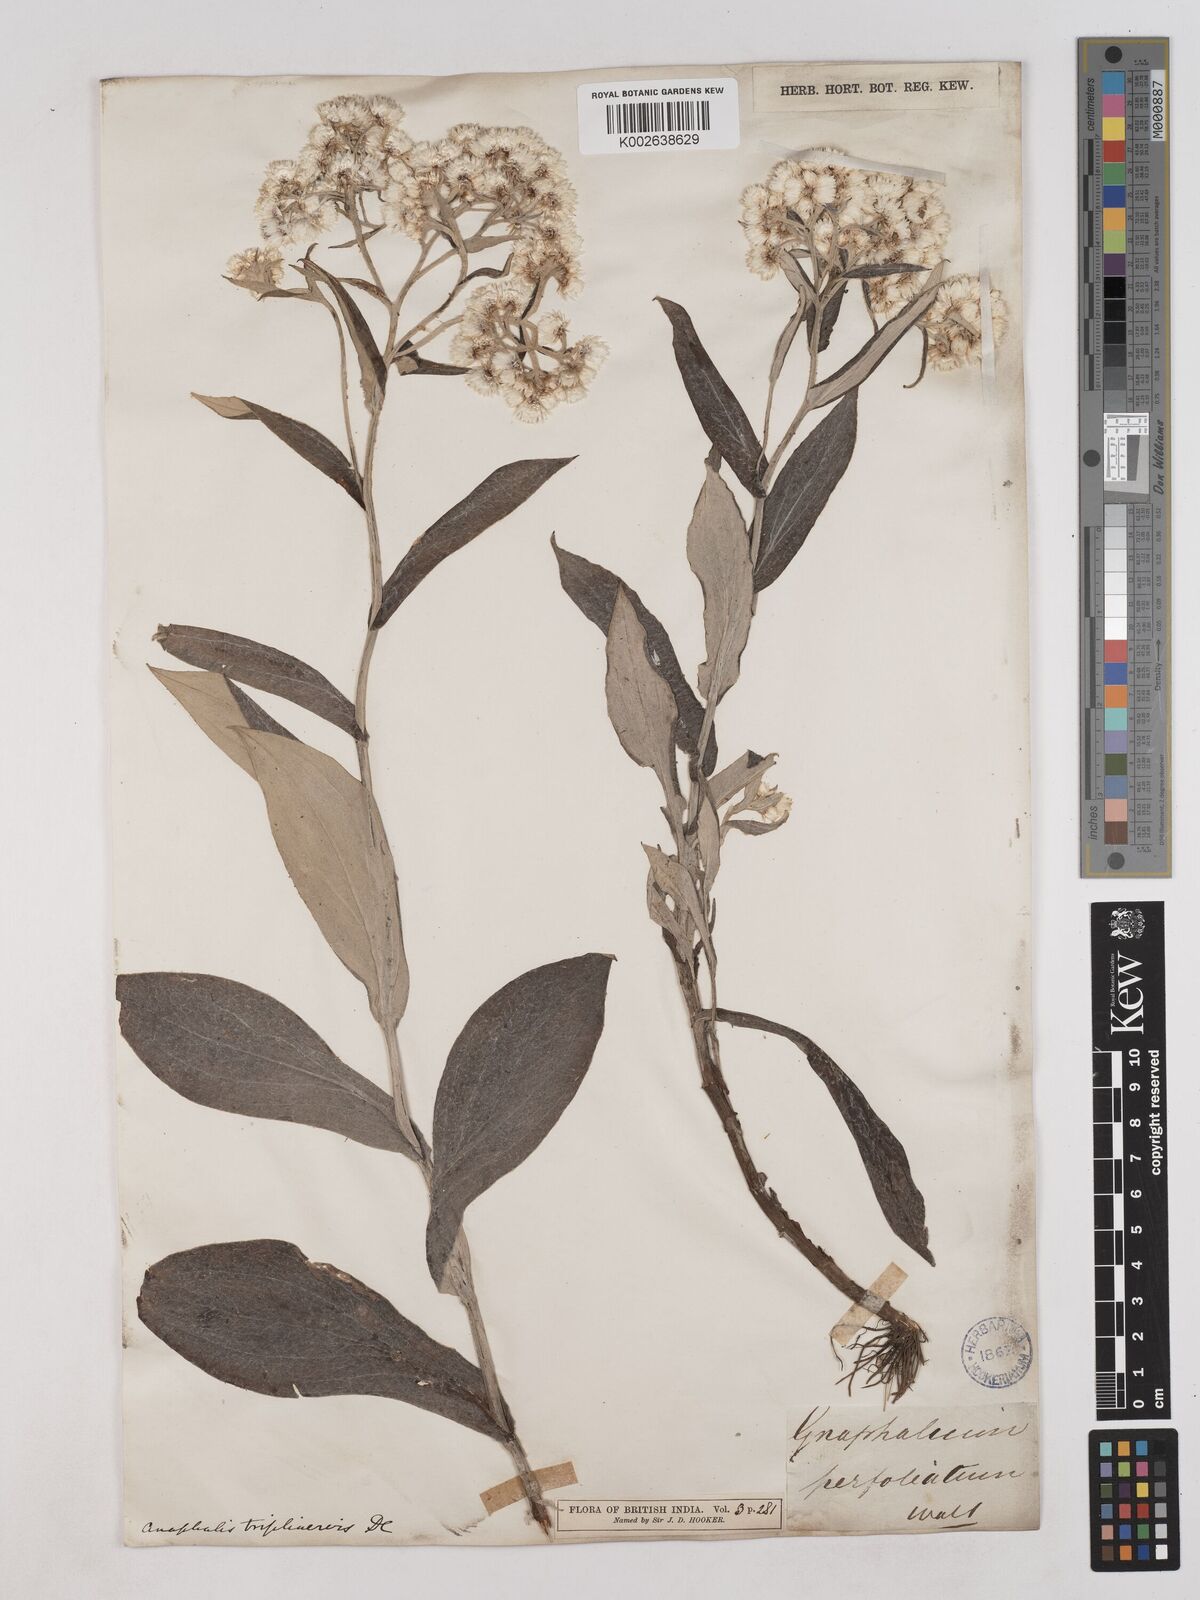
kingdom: Plantae
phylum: Tracheophyta
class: Magnoliopsida
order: Asterales
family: Asteraceae
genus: Anaphalis
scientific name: Anaphalis triplinervis
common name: Pearly everlasting
